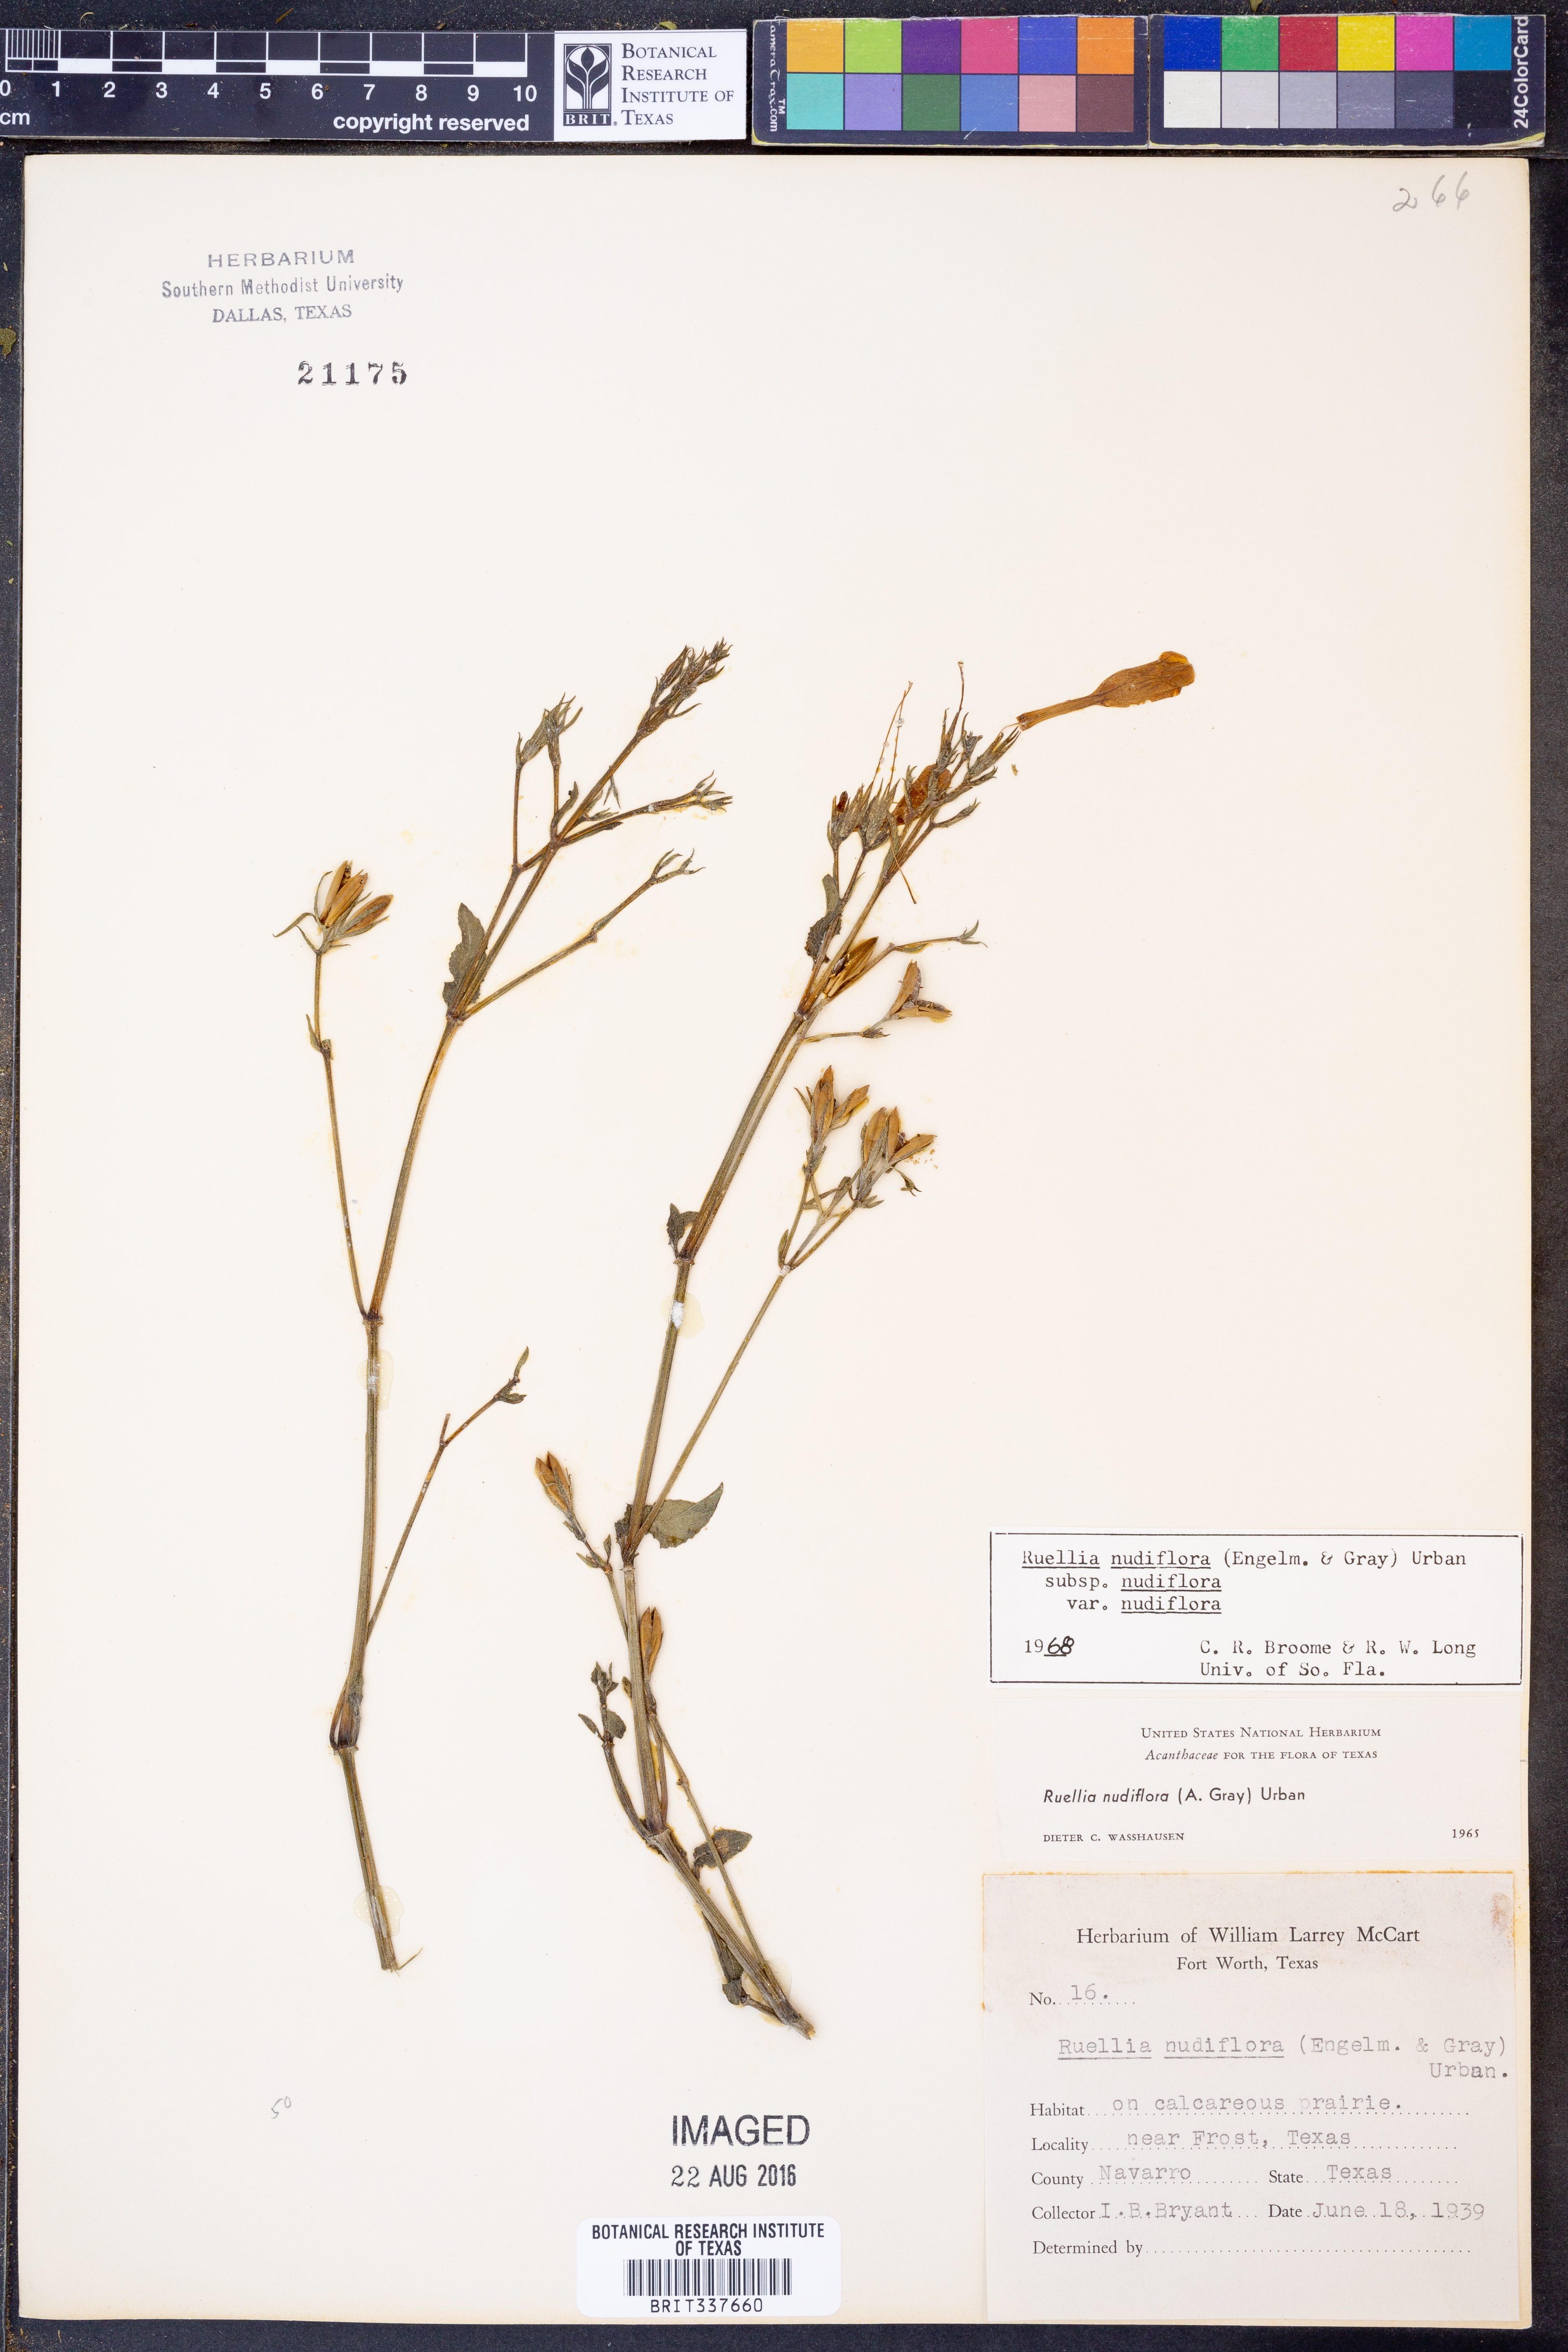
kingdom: Plantae
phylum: Tracheophyta
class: Magnoliopsida
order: Lamiales
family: Acanthaceae
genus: Ruellia
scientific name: Ruellia ciliatiflora
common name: Hairyflower wild petunia
